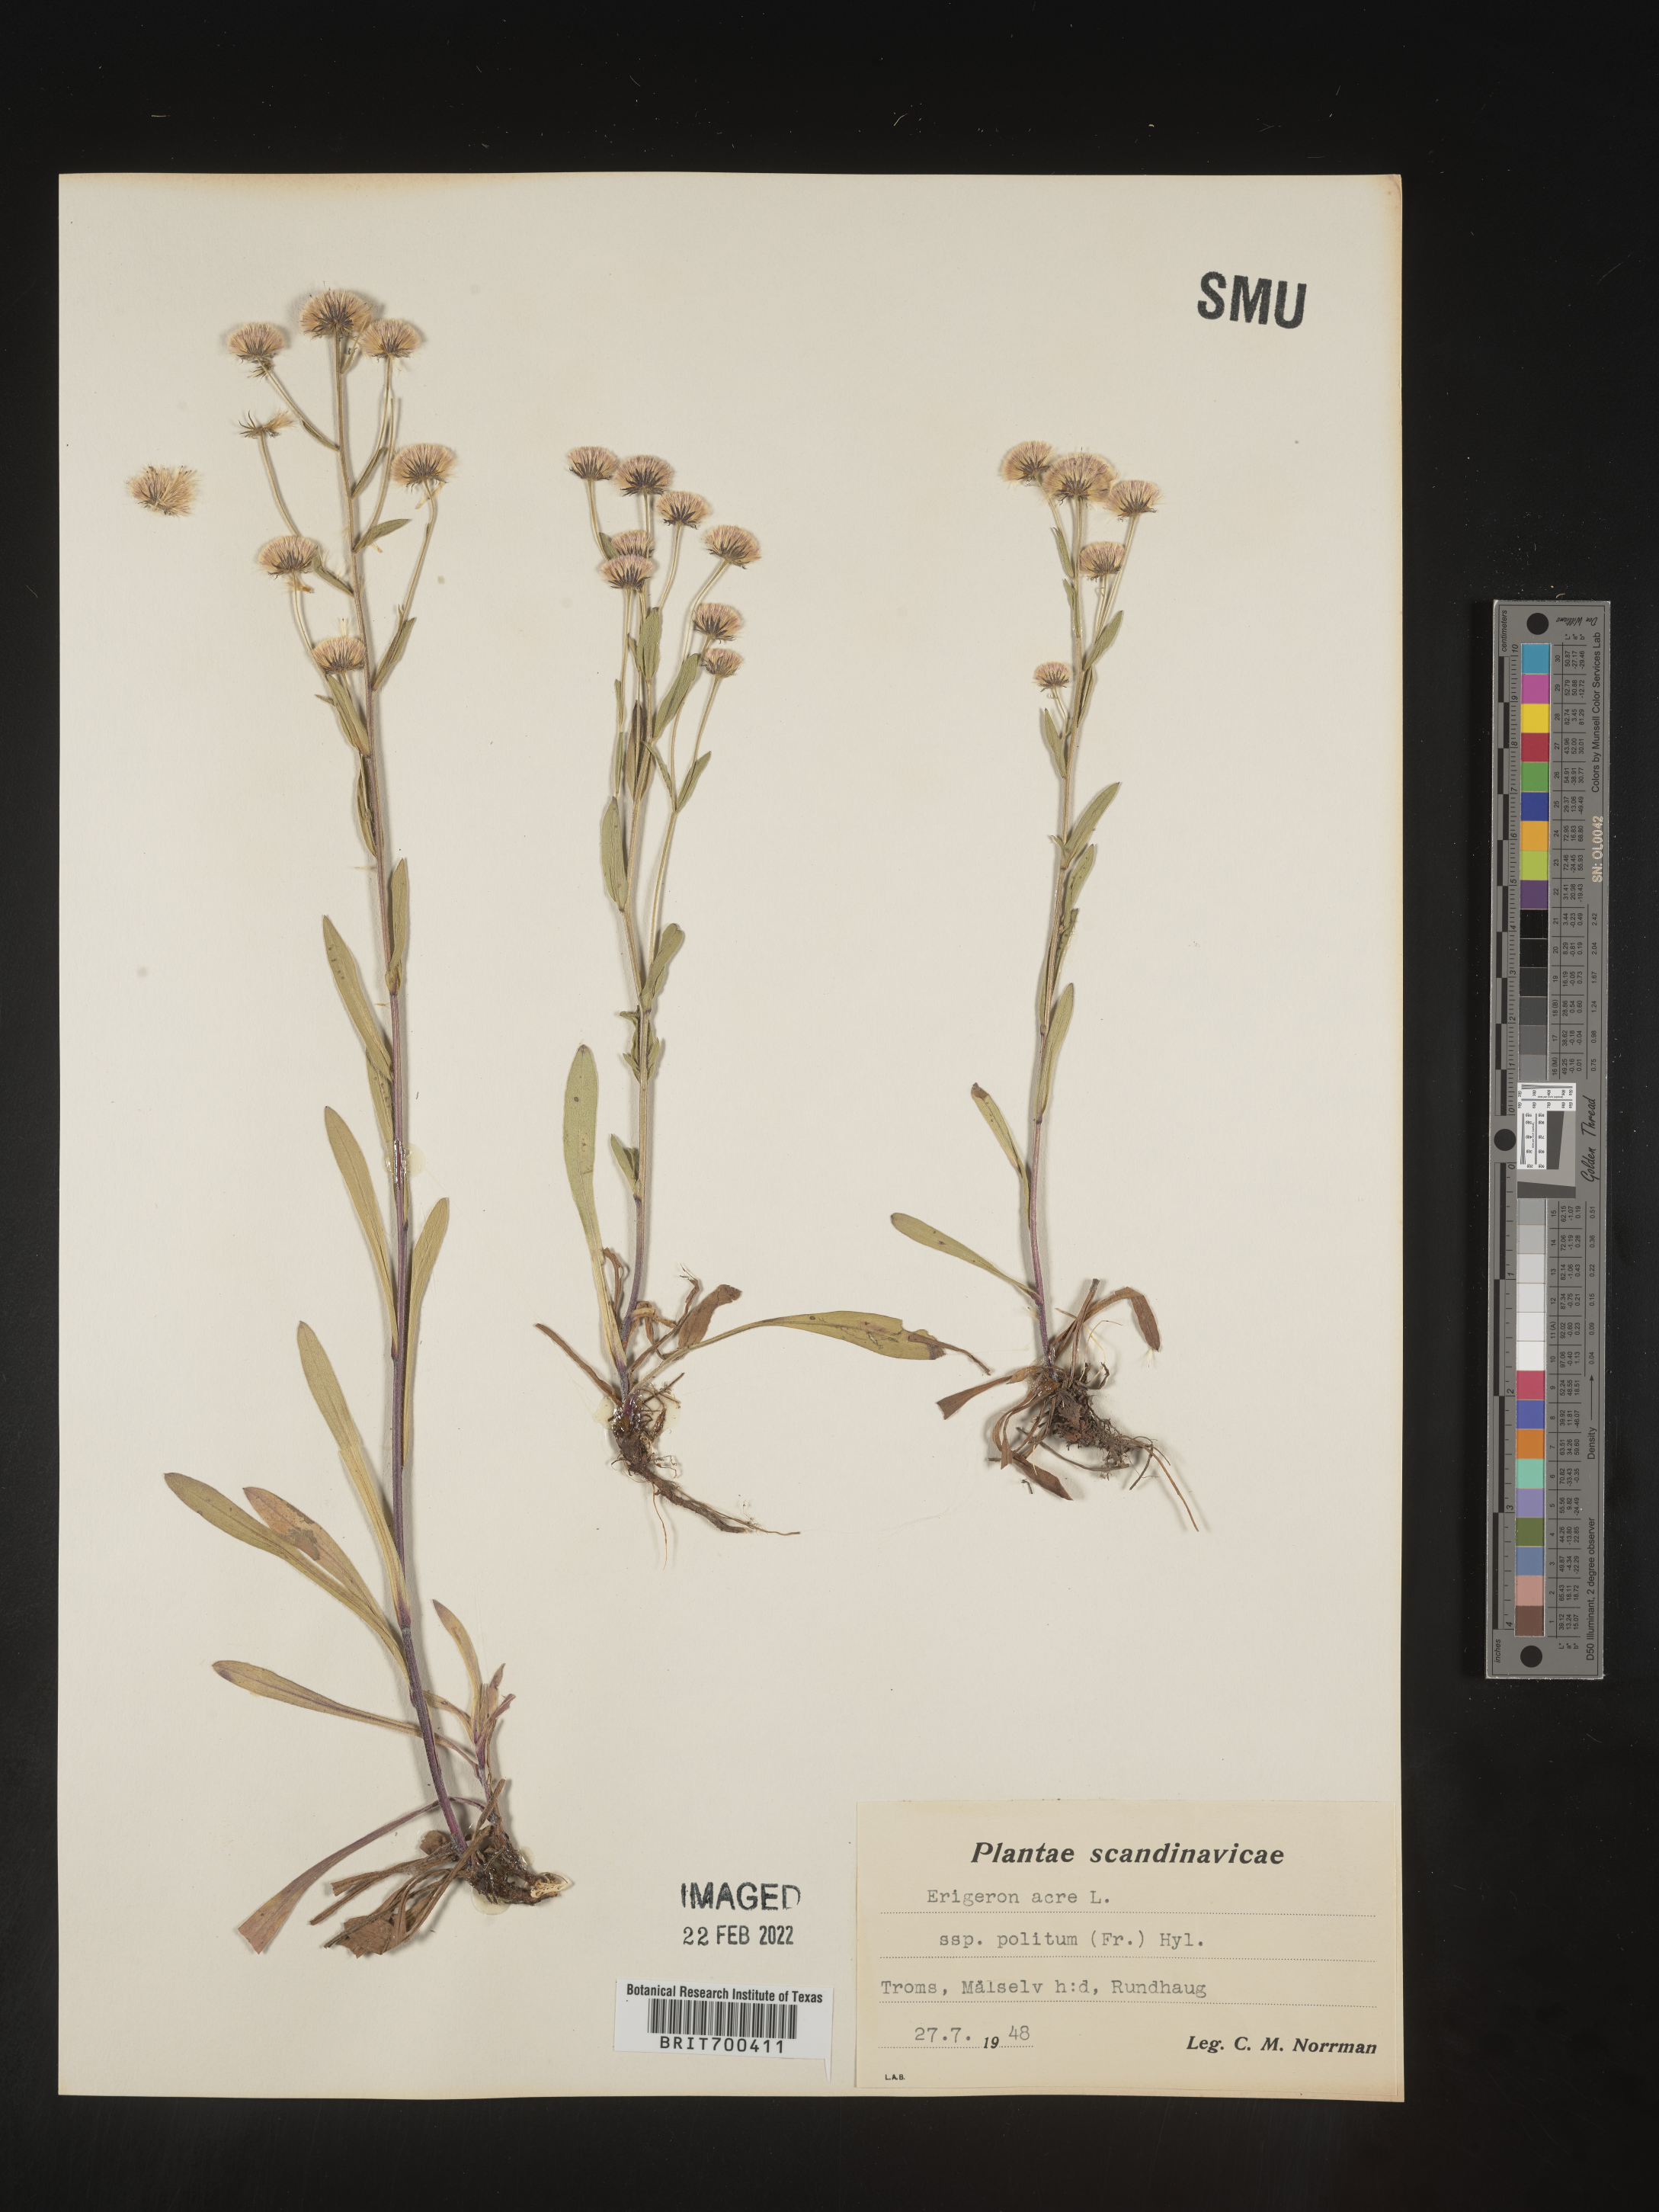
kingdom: Plantae
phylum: Tracheophyta
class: Magnoliopsida
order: Asterales
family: Asteraceae
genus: Erigeron
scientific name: Erigeron
